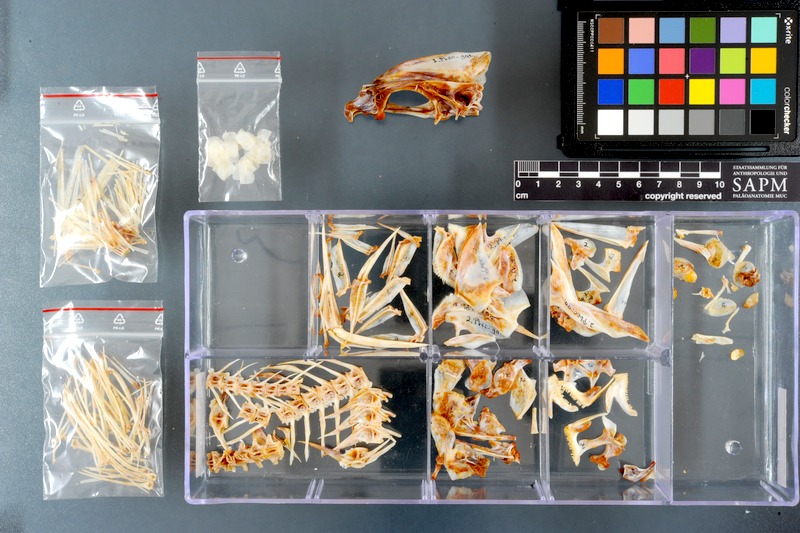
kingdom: Animalia
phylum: Chordata
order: Perciformes
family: Haemulidae
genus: Plectorhinchus
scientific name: Plectorhinchus gaterinus
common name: Blackspotted rubberlip
